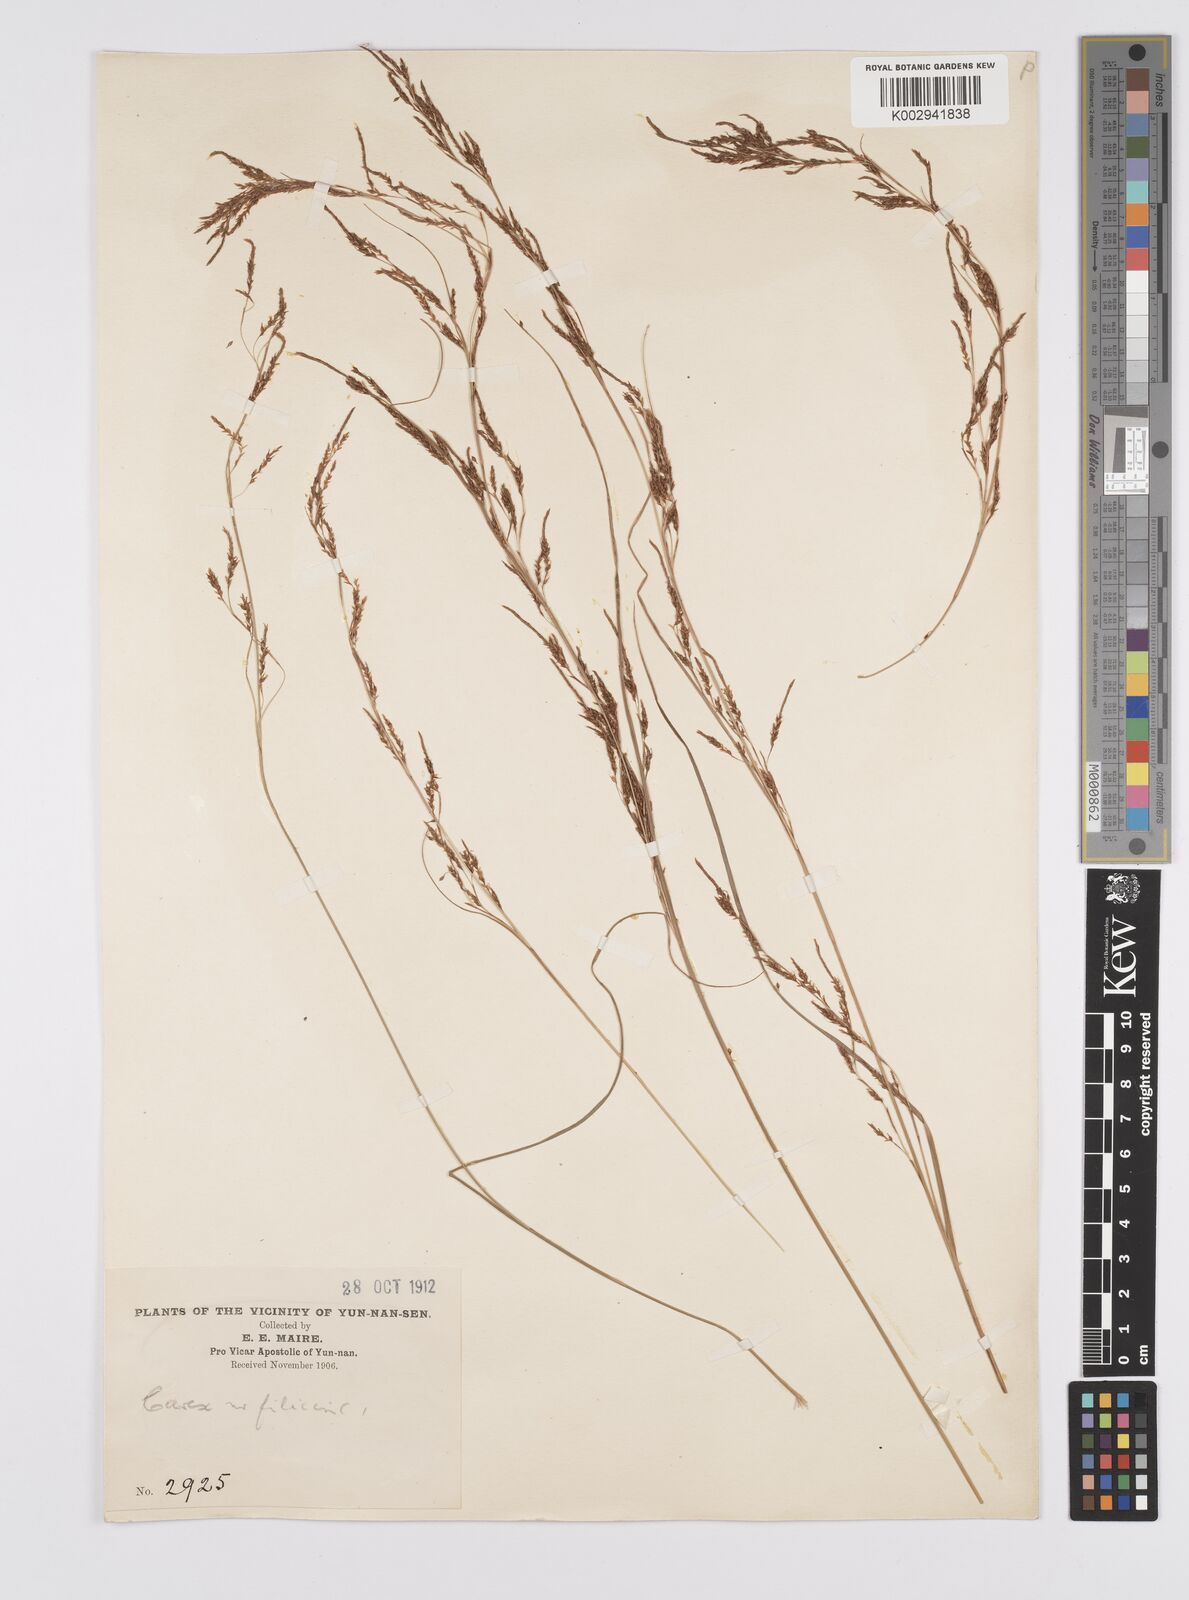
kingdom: Plantae
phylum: Tracheophyta
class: Liliopsida
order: Poales
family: Cyperaceae
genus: Carex
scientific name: Carex gentilis
